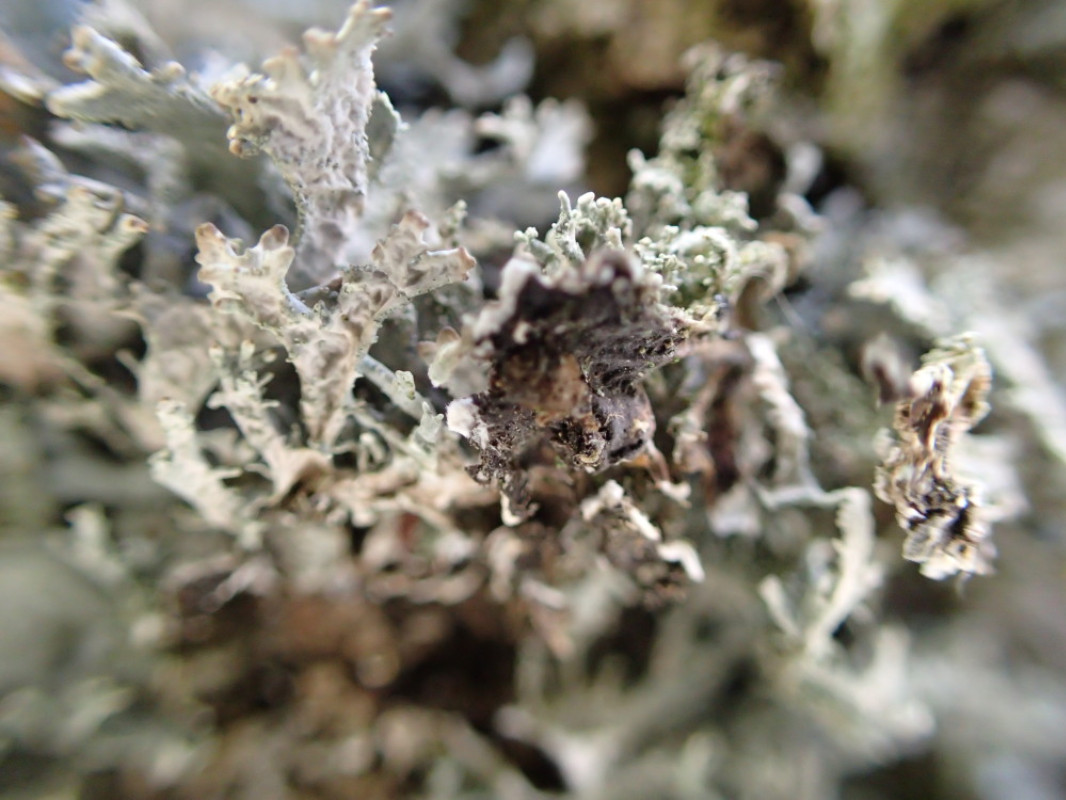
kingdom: Fungi
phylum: Ascomycota
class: Lecanoromycetes
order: Lecanorales
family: Parmeliaceae
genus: Pseudevernia
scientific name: Pseudevernia furfuracea
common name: grå fyrrelav
